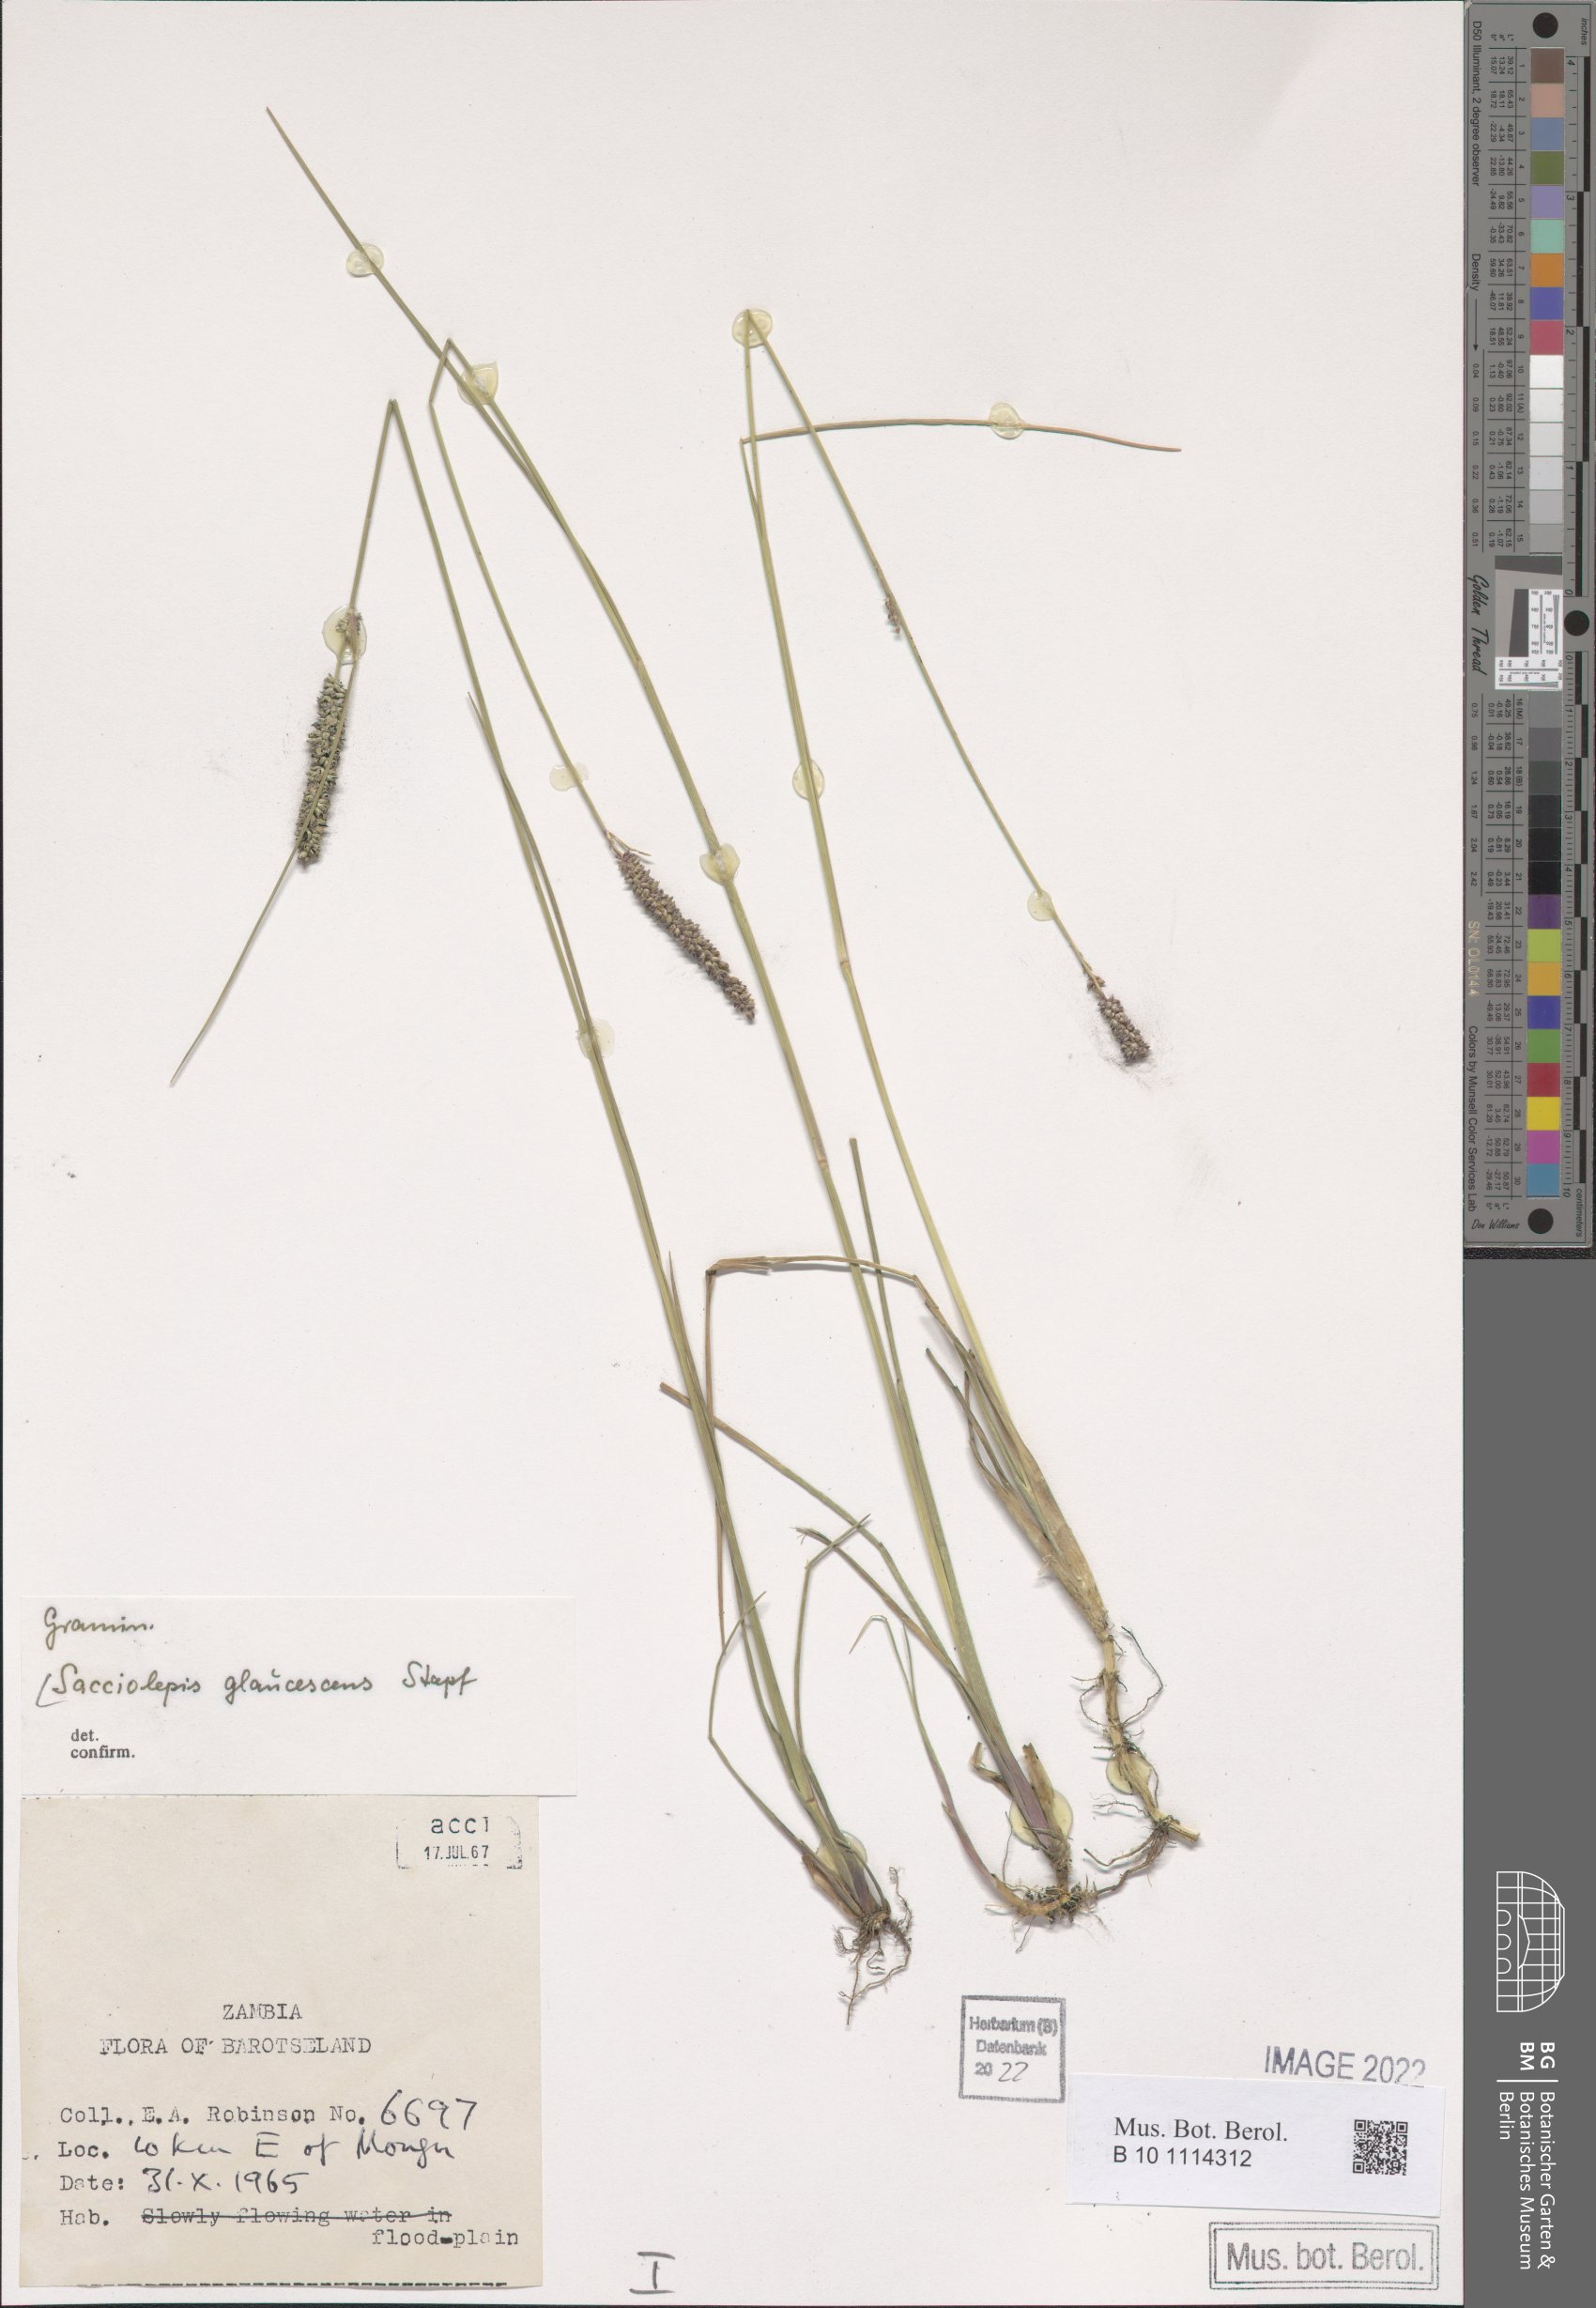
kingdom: Plantae
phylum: Tracheophyta
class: Liliopsida
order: Poales
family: Poaceae
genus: Sacciolepis
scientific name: Sacciolepis typhura
